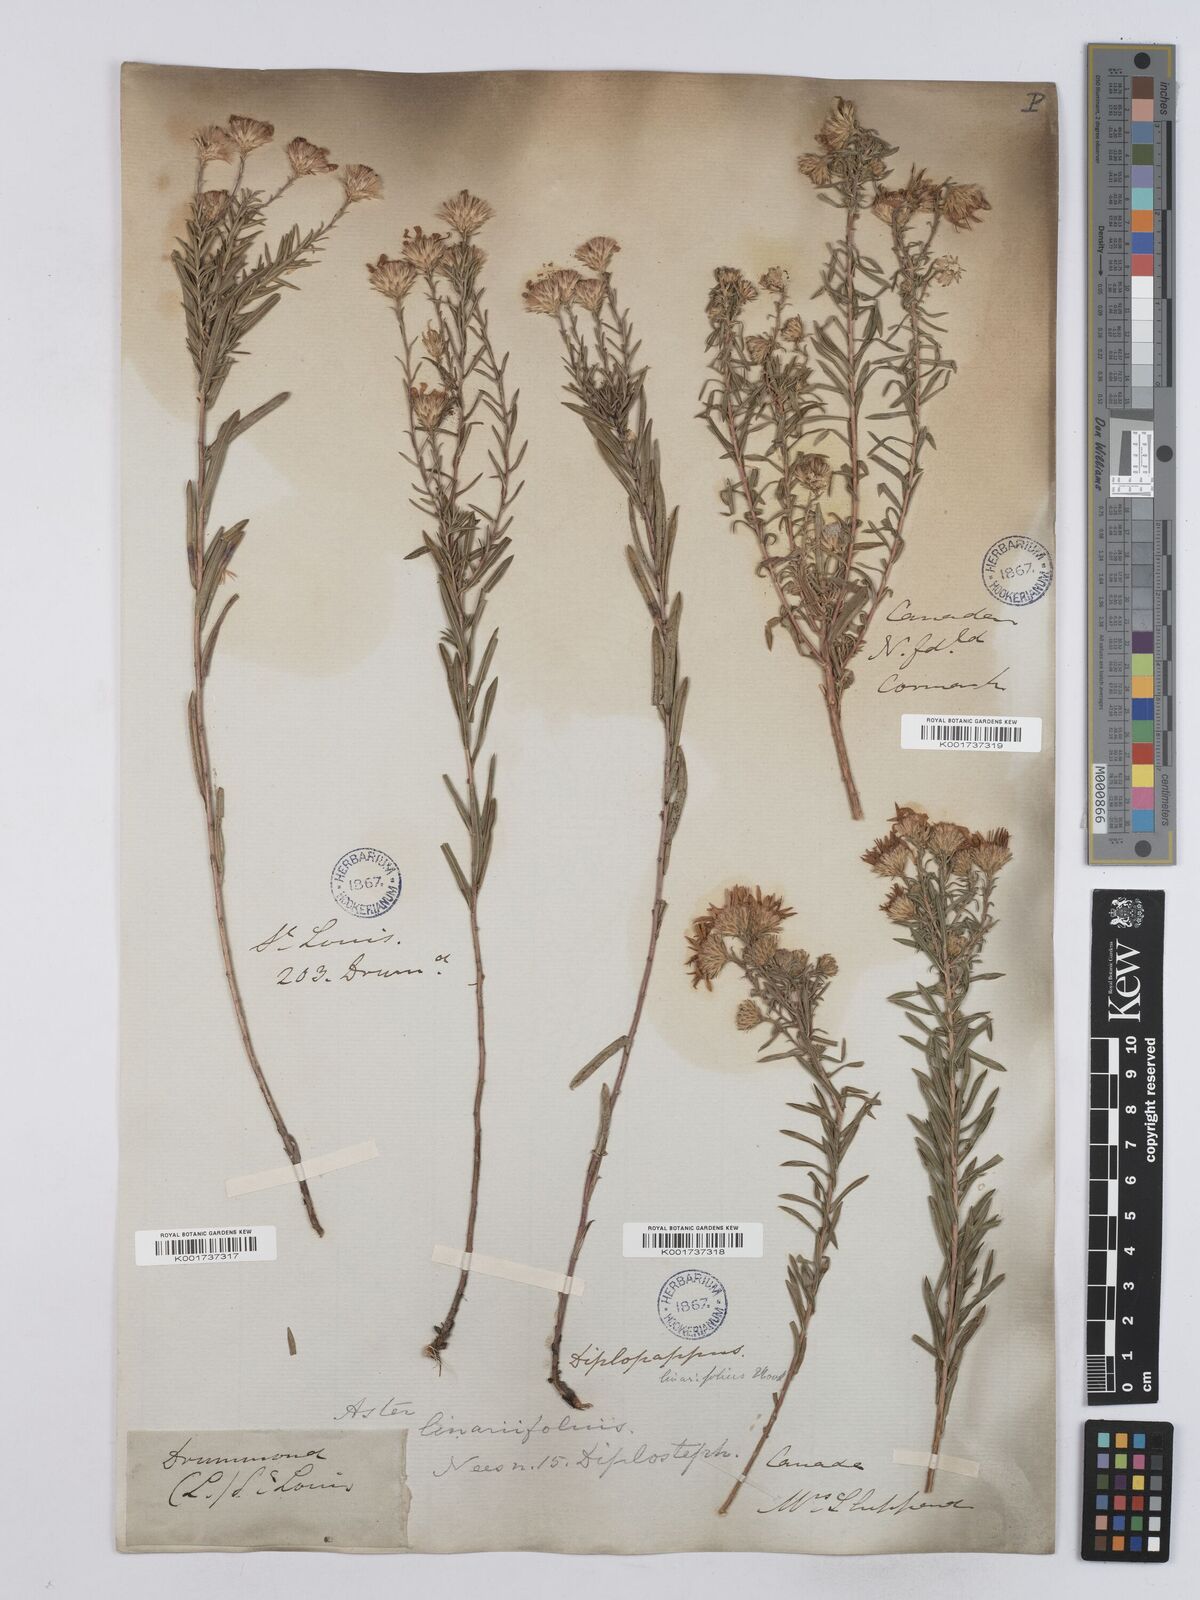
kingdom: Plantae
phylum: Tracheophyta
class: Magnoliopsida
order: Asterales
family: Asteraceae
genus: Ionactis
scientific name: Ionactis linariifolia
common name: Flax-leaf aster
